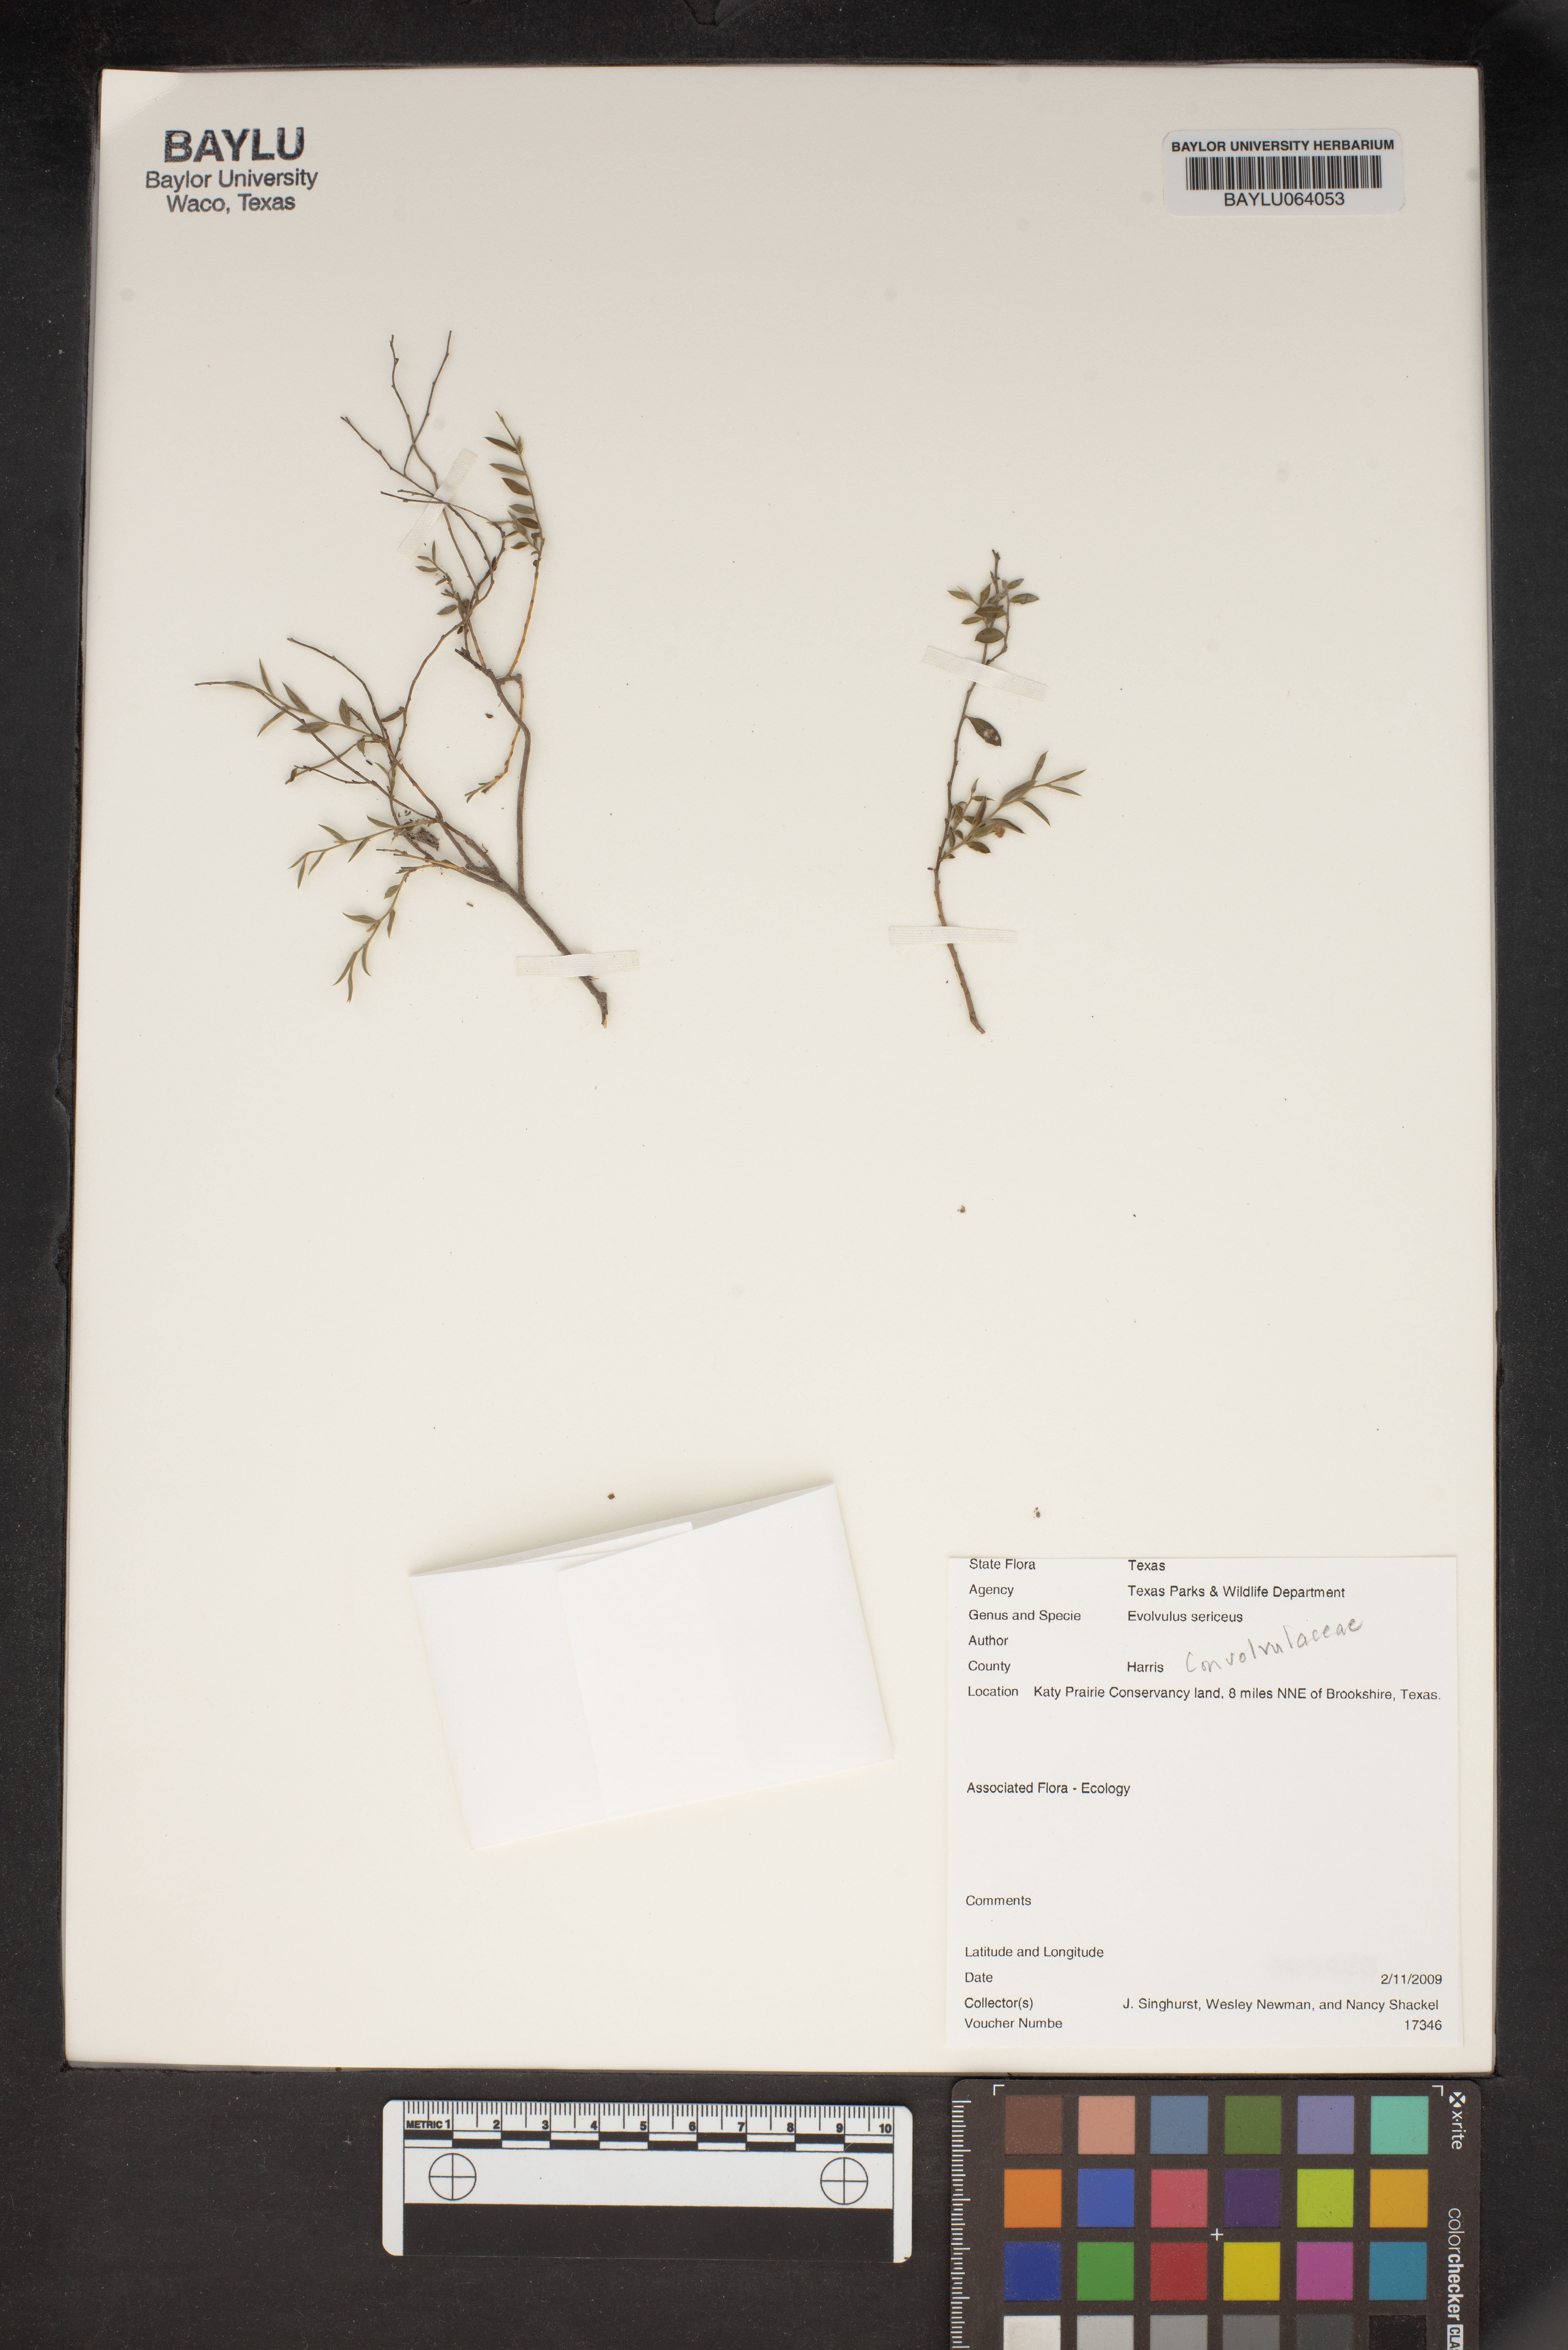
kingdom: Plantae
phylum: Tracheophyta
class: Magnoliopsida
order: Solanales
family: Convolvulaceae
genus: Evolvulus
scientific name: Evolvulus sericeus
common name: Blue dots
